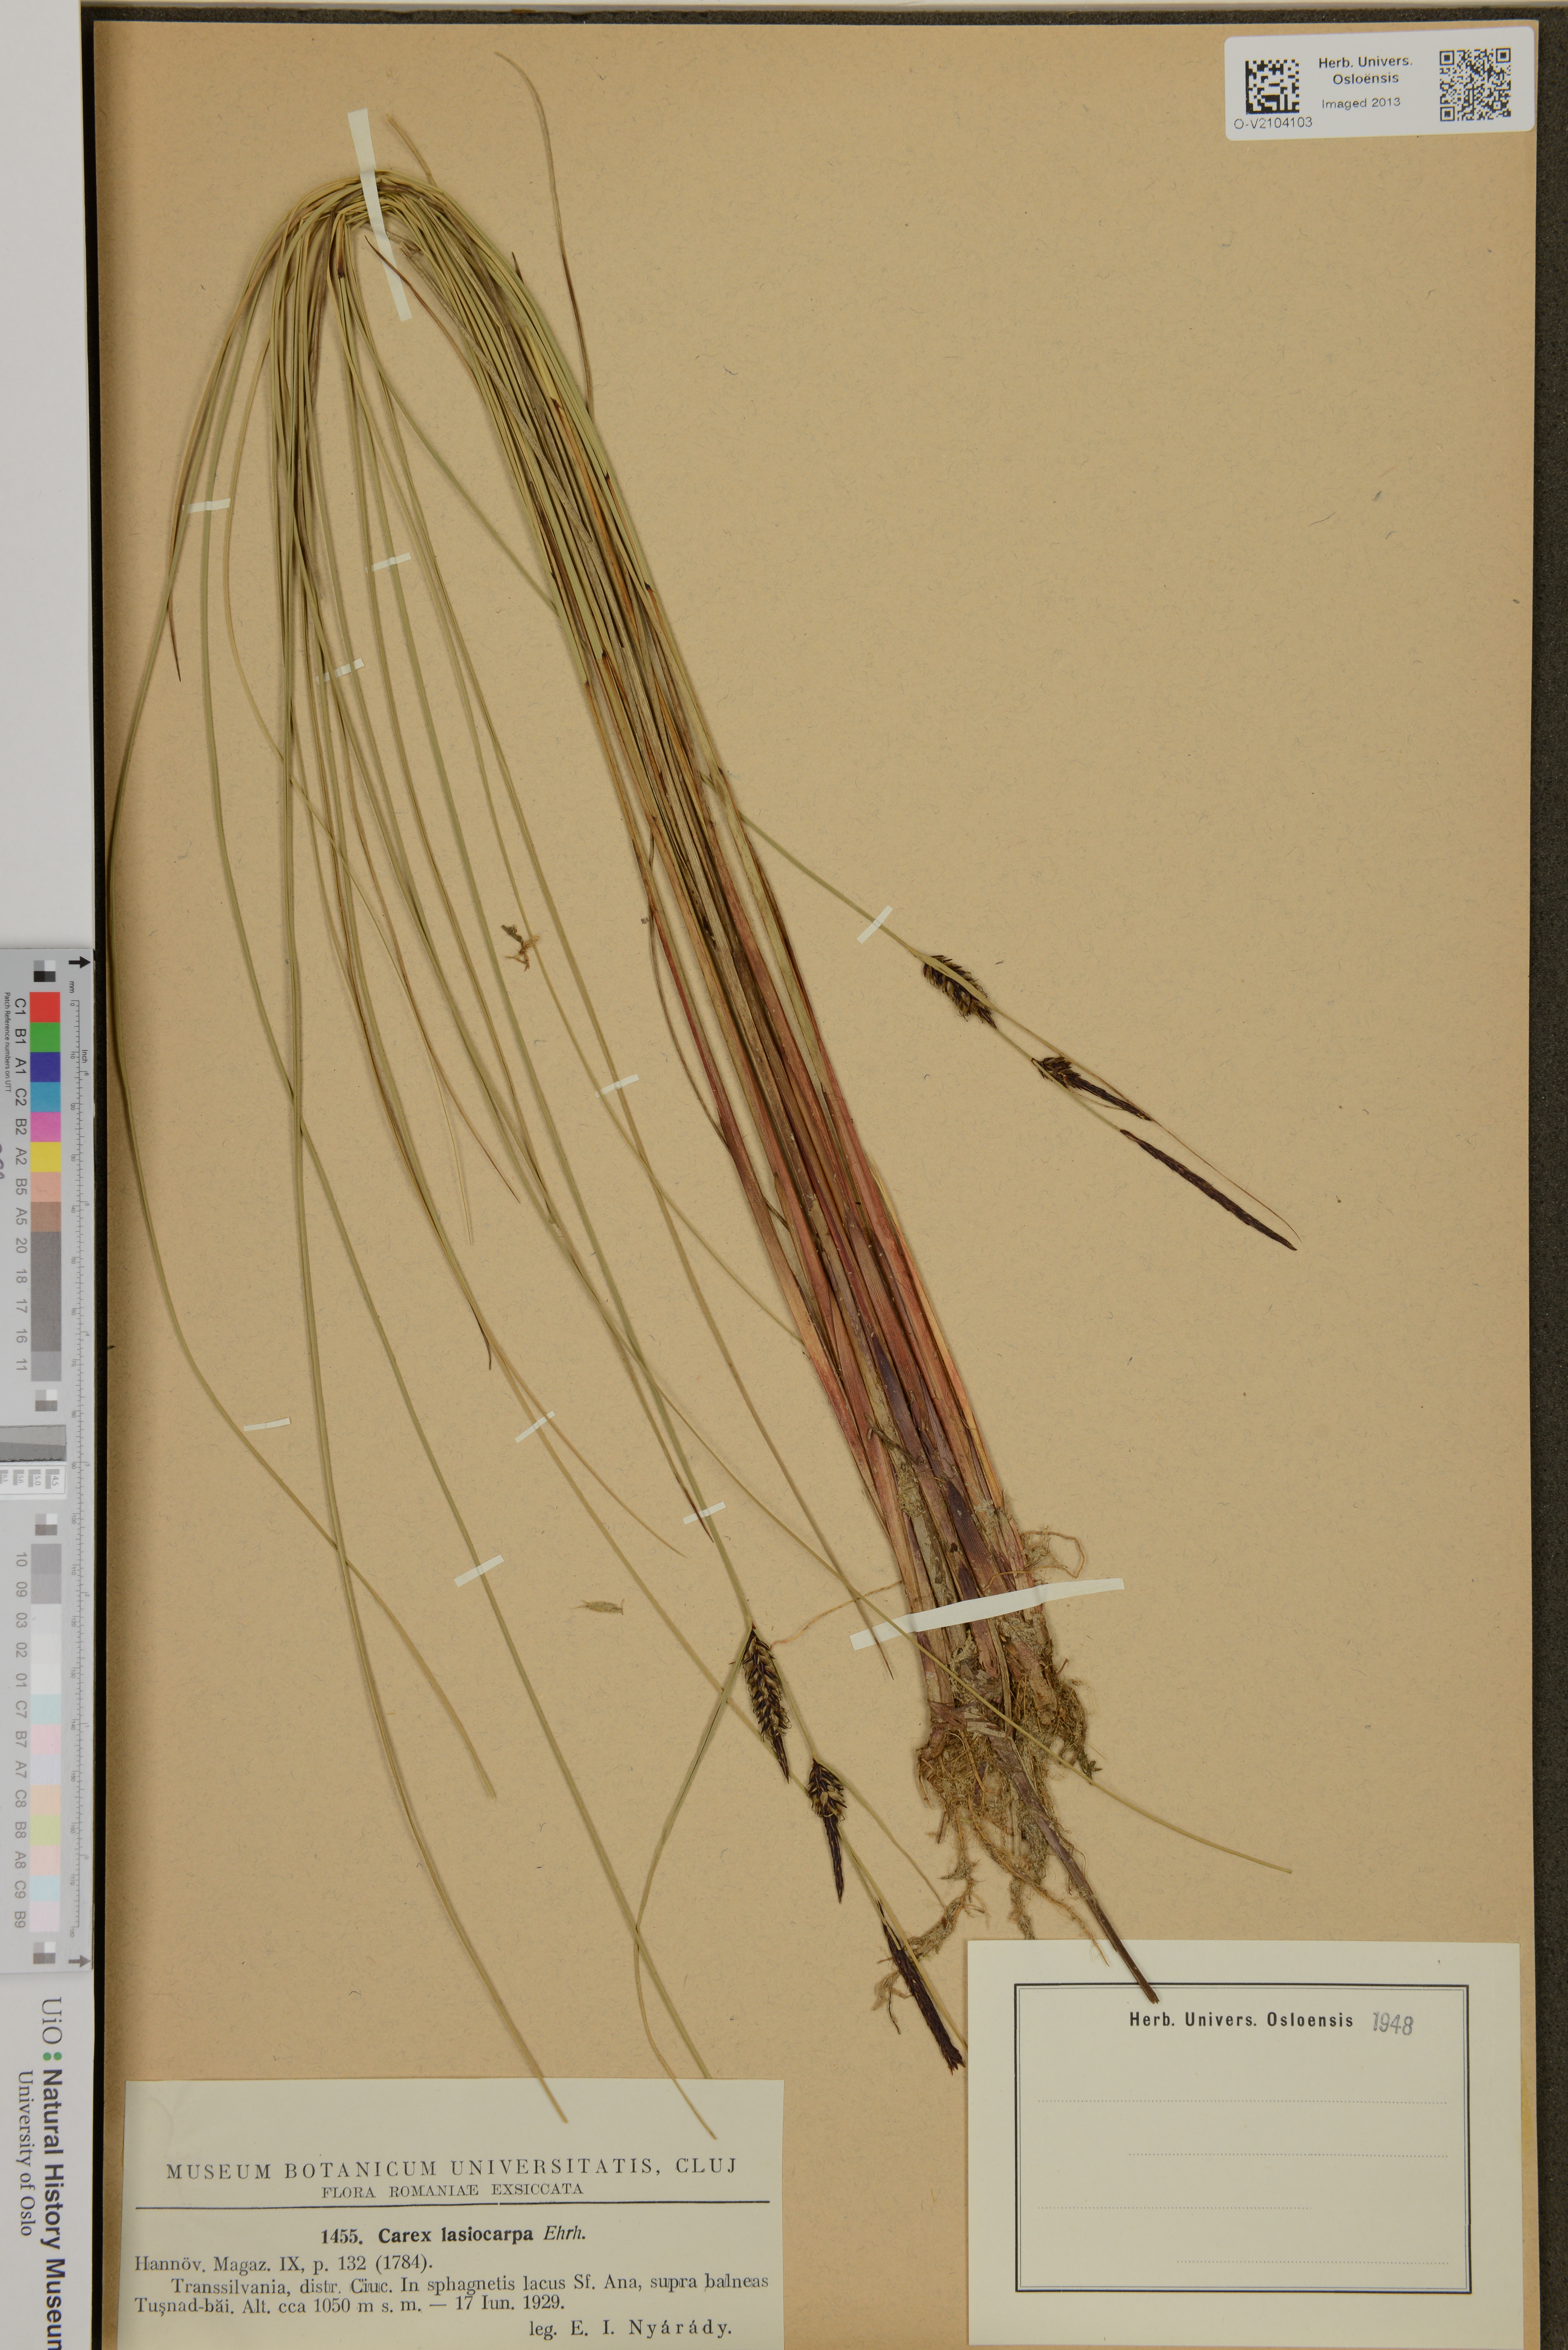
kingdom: Plantae
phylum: Tracheophyta
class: Liliopsida
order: Poales
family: Cyperaceae
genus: Carex
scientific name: Carex lasiocarpa
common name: Slender sedge
